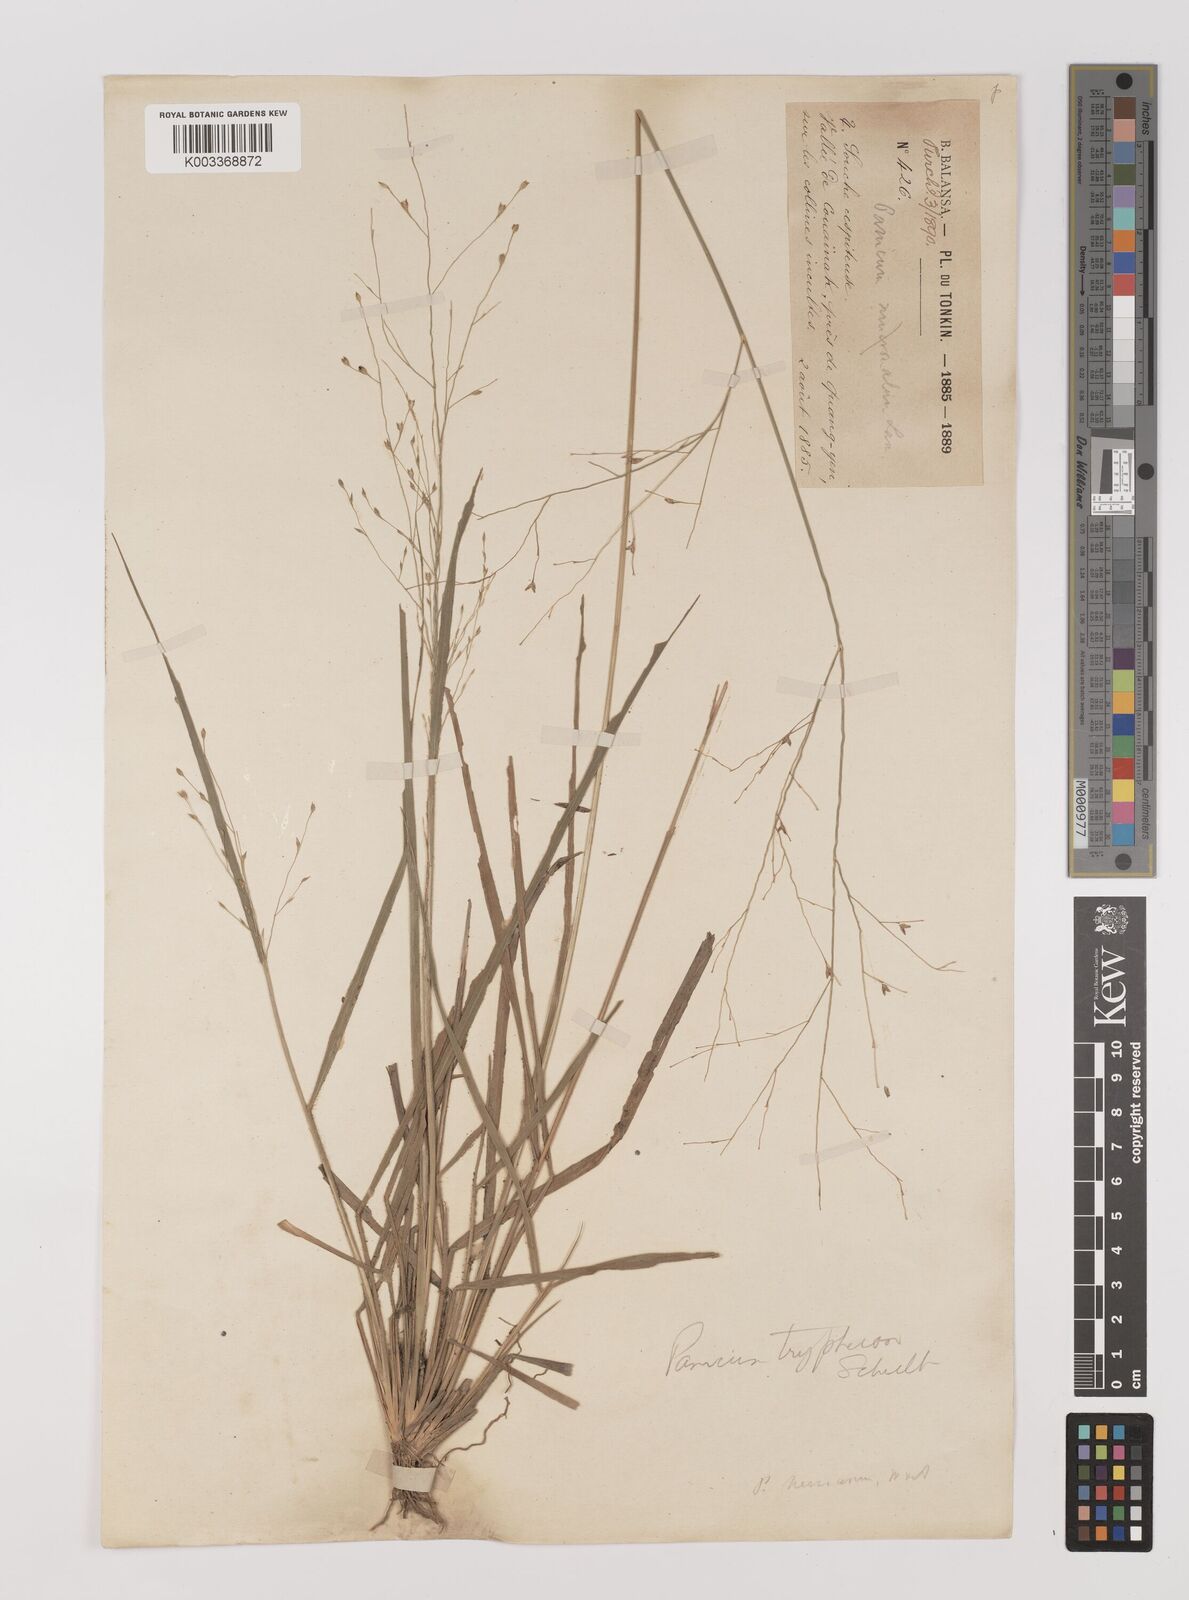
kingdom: Plantae
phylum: Tracheophyta
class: Liliopsida
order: Poales
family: Poaceae
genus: Panicum
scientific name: Panicum elegantissimum
